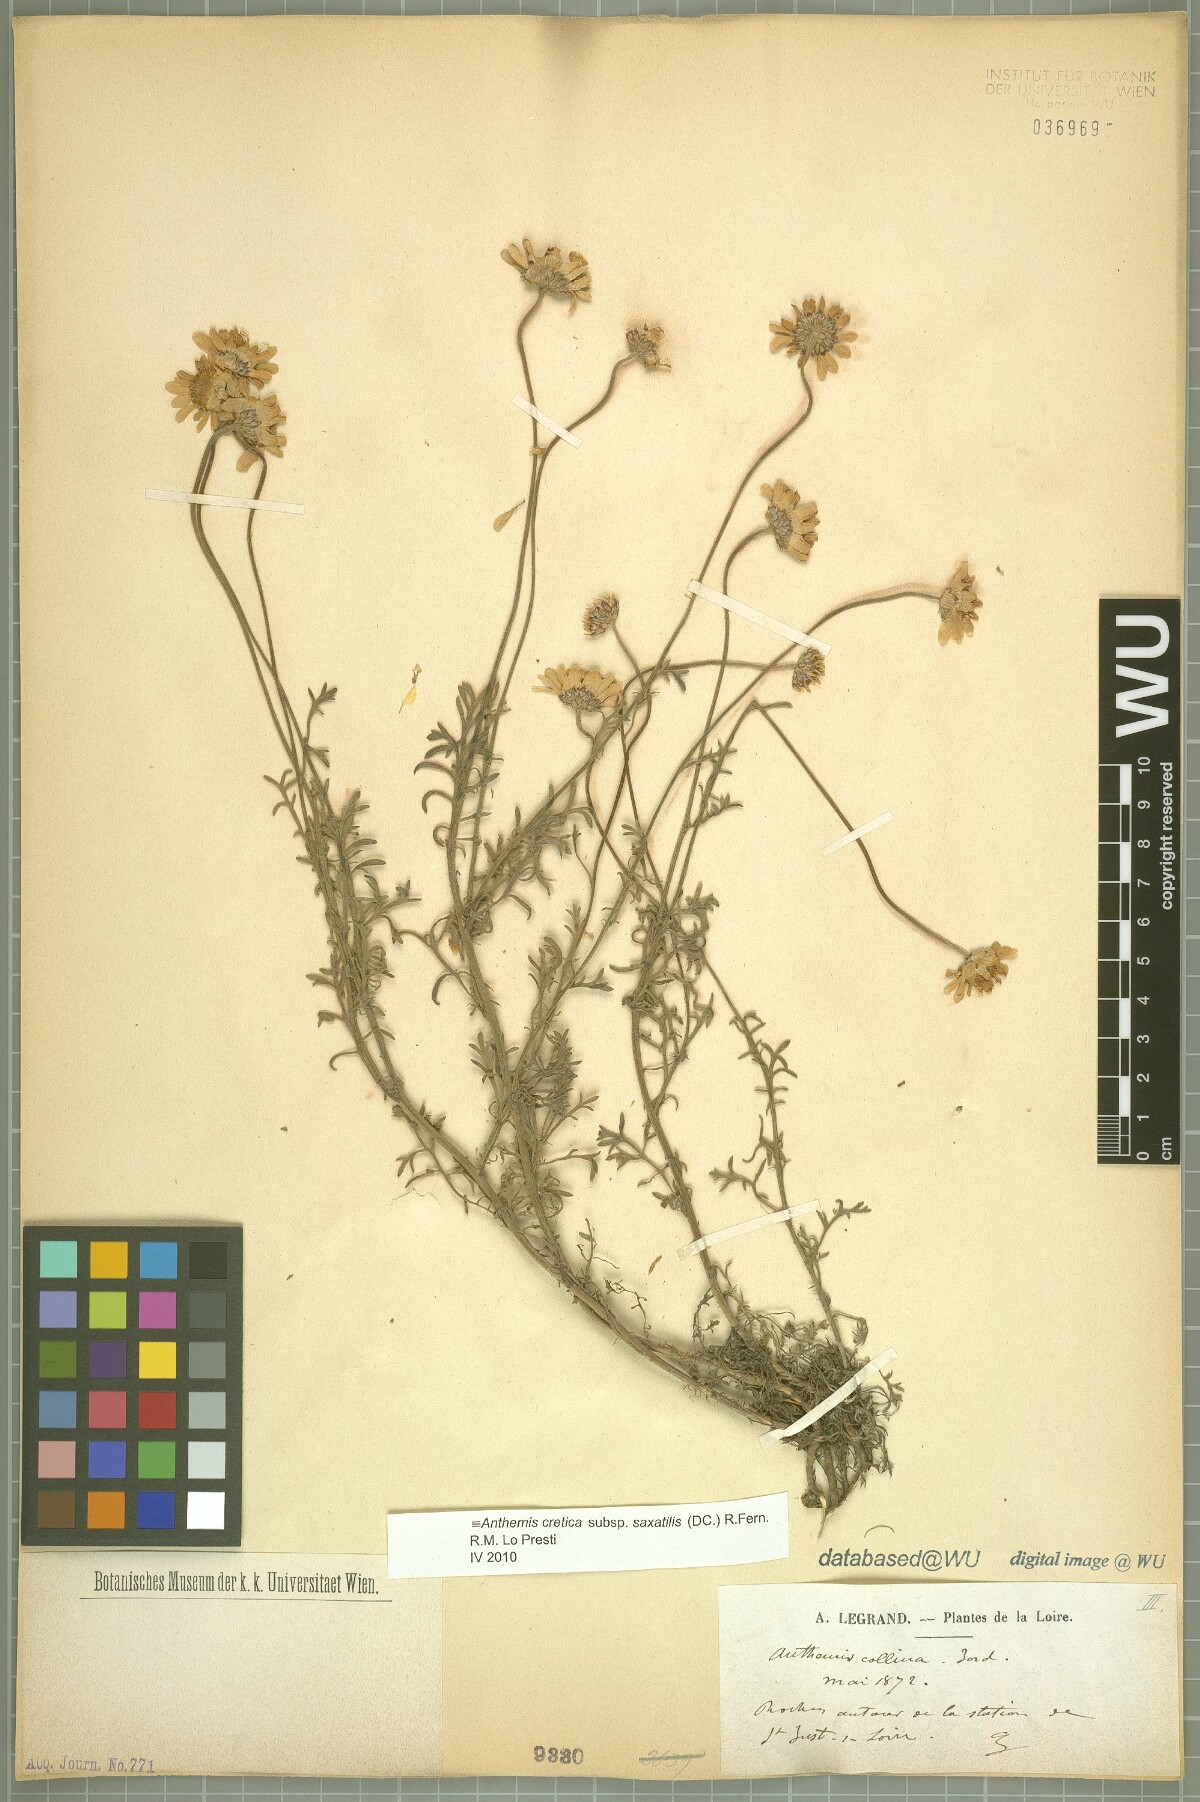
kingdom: Plantae
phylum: Tracheophyta
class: Magnoliopsida
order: Asterales
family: Asteraceae
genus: Anthemis
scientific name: Anthemis cretica
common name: Mountain dog-daisy
